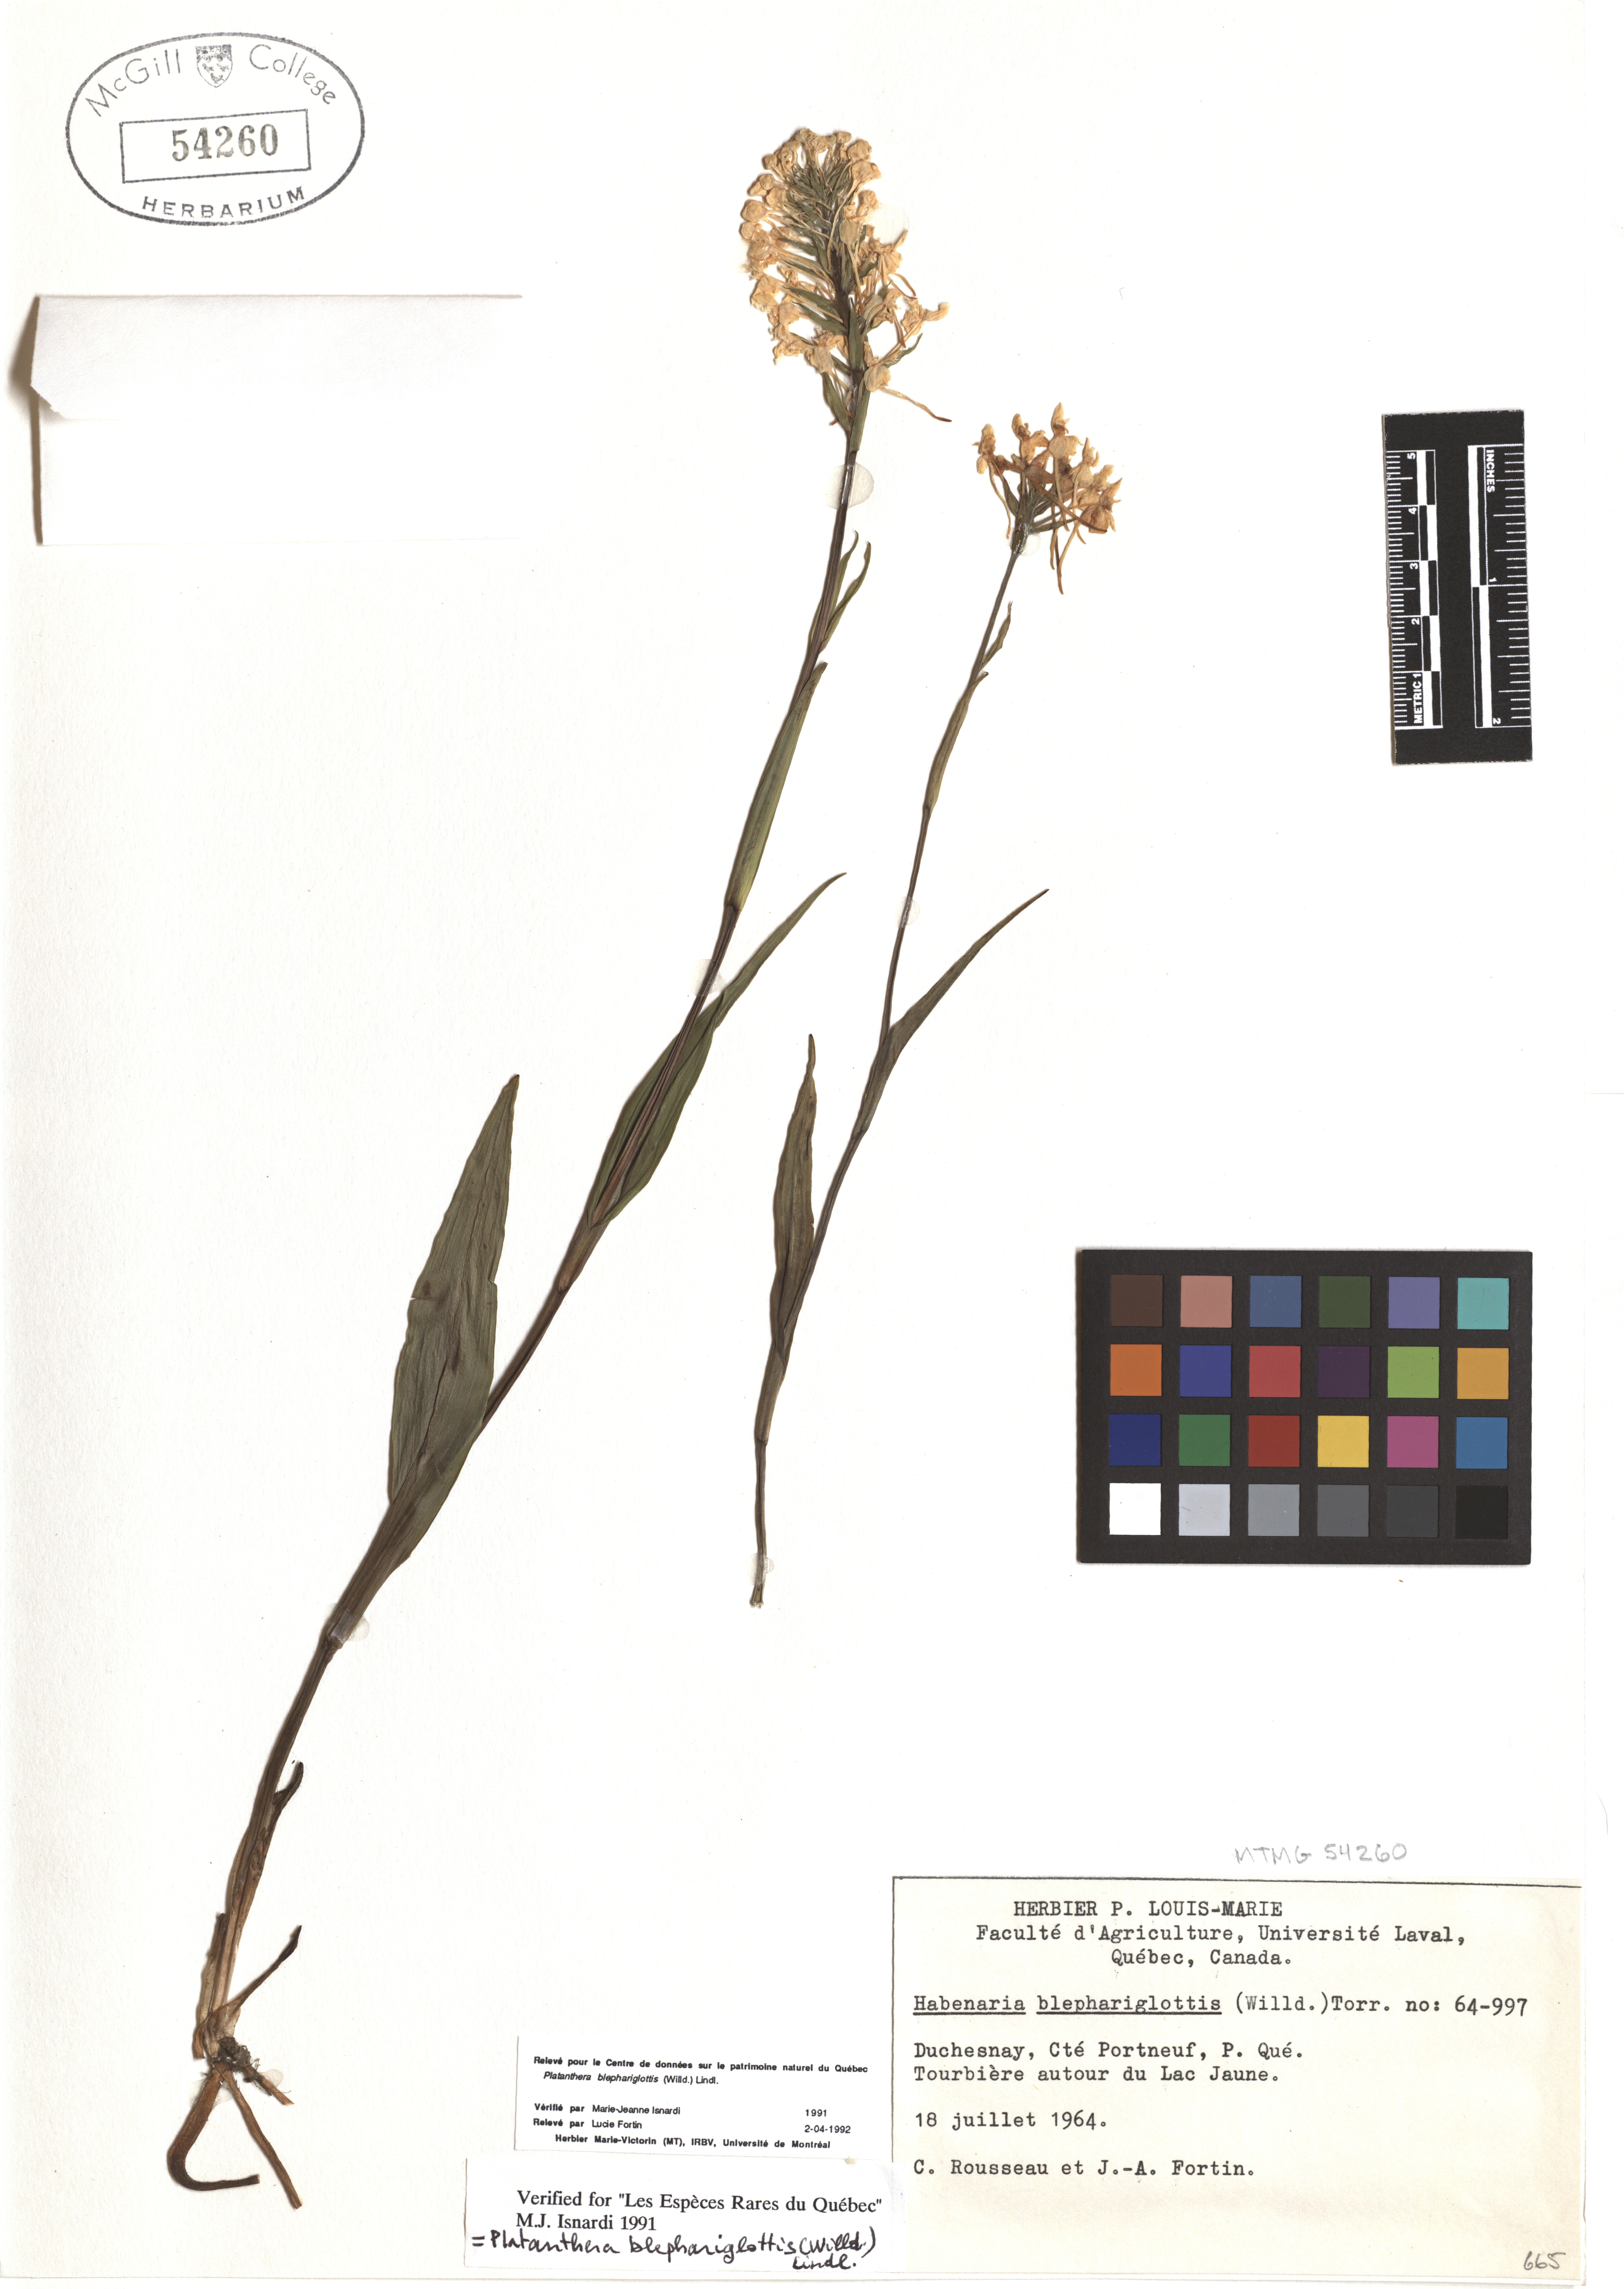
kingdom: Plantae
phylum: Tracheophyta
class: Liliopsida
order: Asparagales
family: Orchidaceae
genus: Platanthera
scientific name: Platanthera blephariglottis
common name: White fringed orchid
